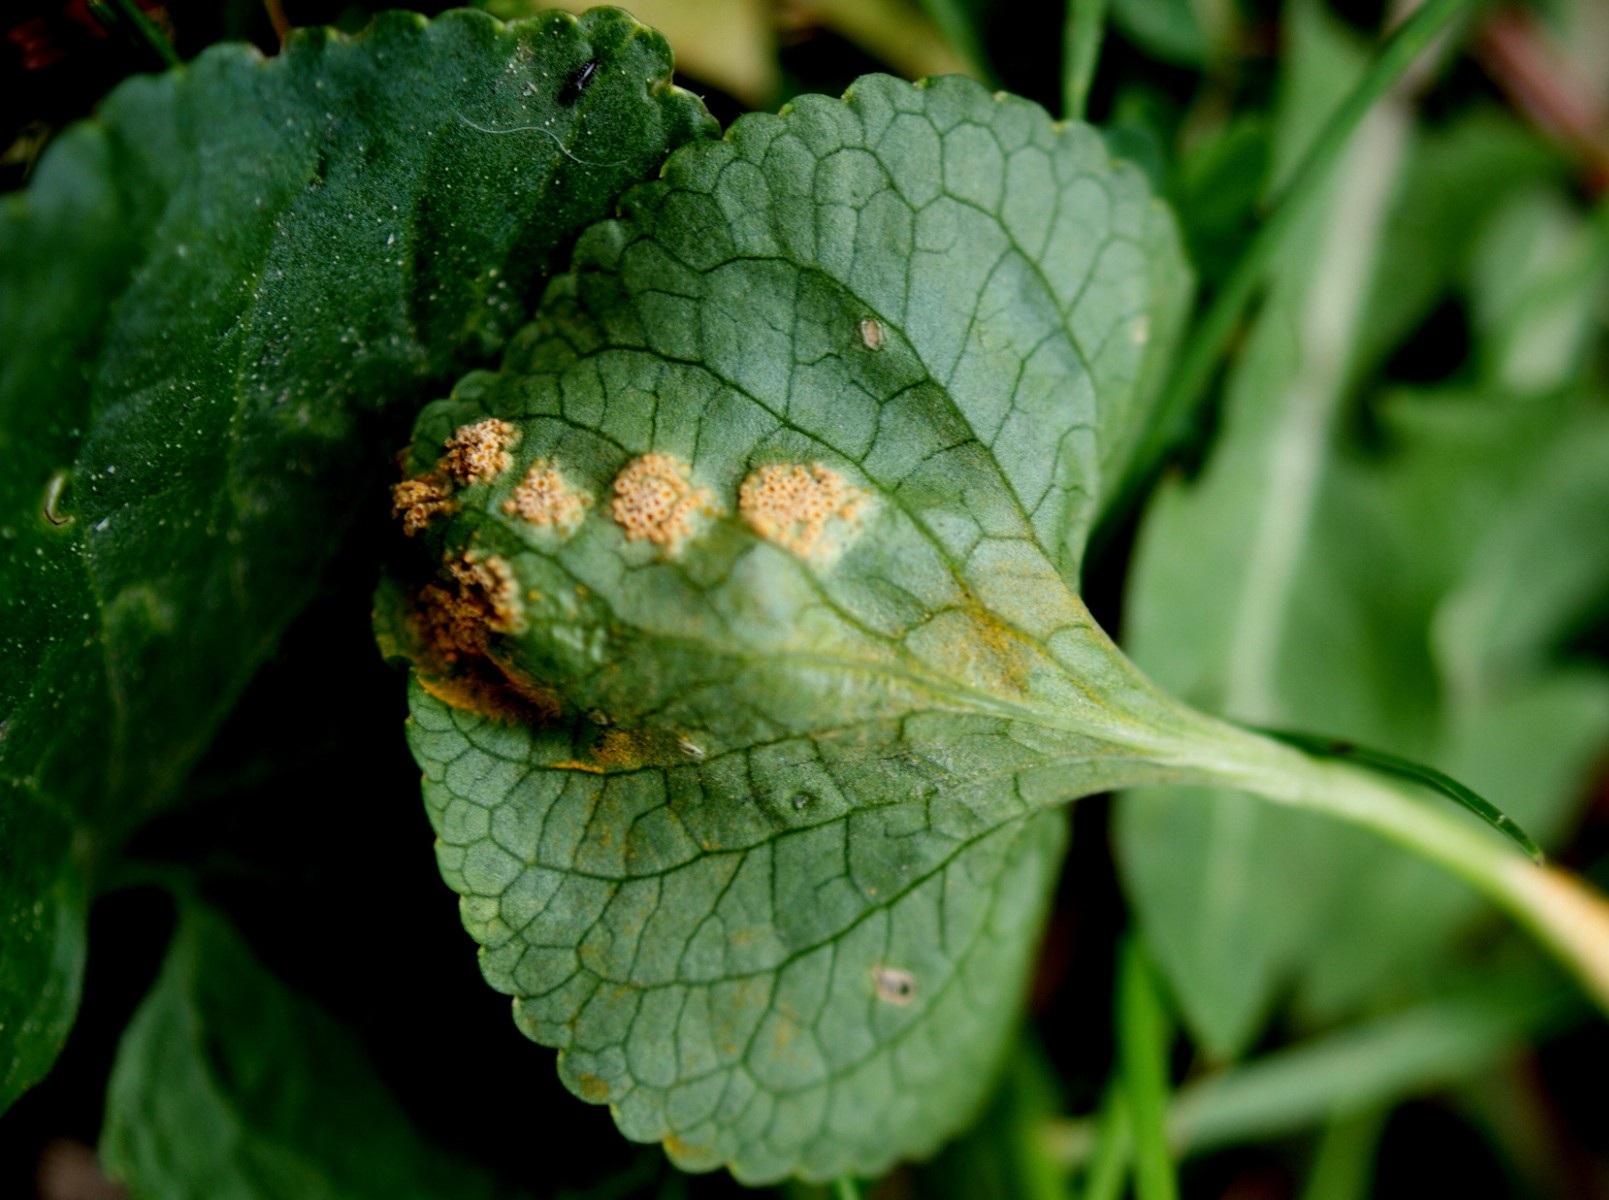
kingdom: Fungi
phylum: Basidiomycota
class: Pucciniomycetes
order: Pucciniales
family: Pucciniaceae
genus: Puccinia
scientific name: Puccinia violae
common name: viol-tvecellerust
